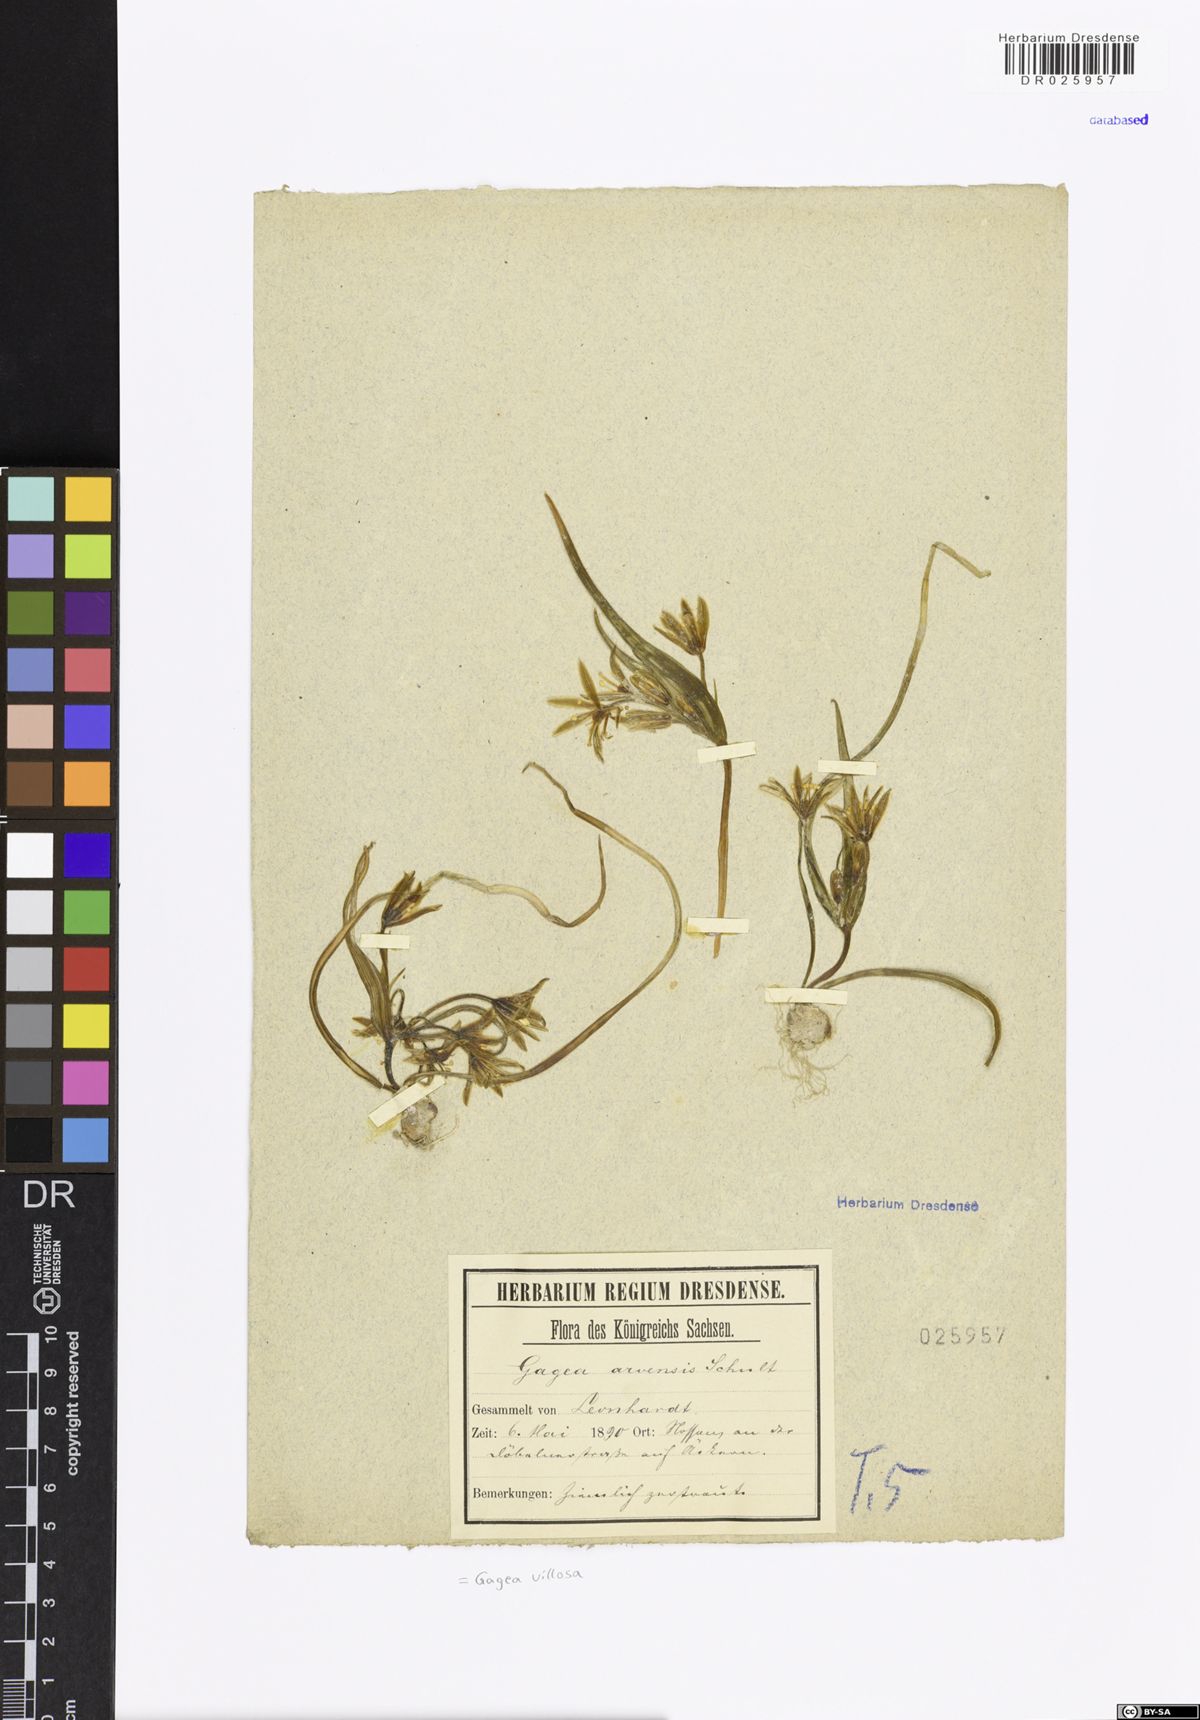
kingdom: Plantae
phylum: Tracheophyta
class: Liliopsida
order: Liliales
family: Liliaceae
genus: Gagea
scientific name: Gagea villosa
